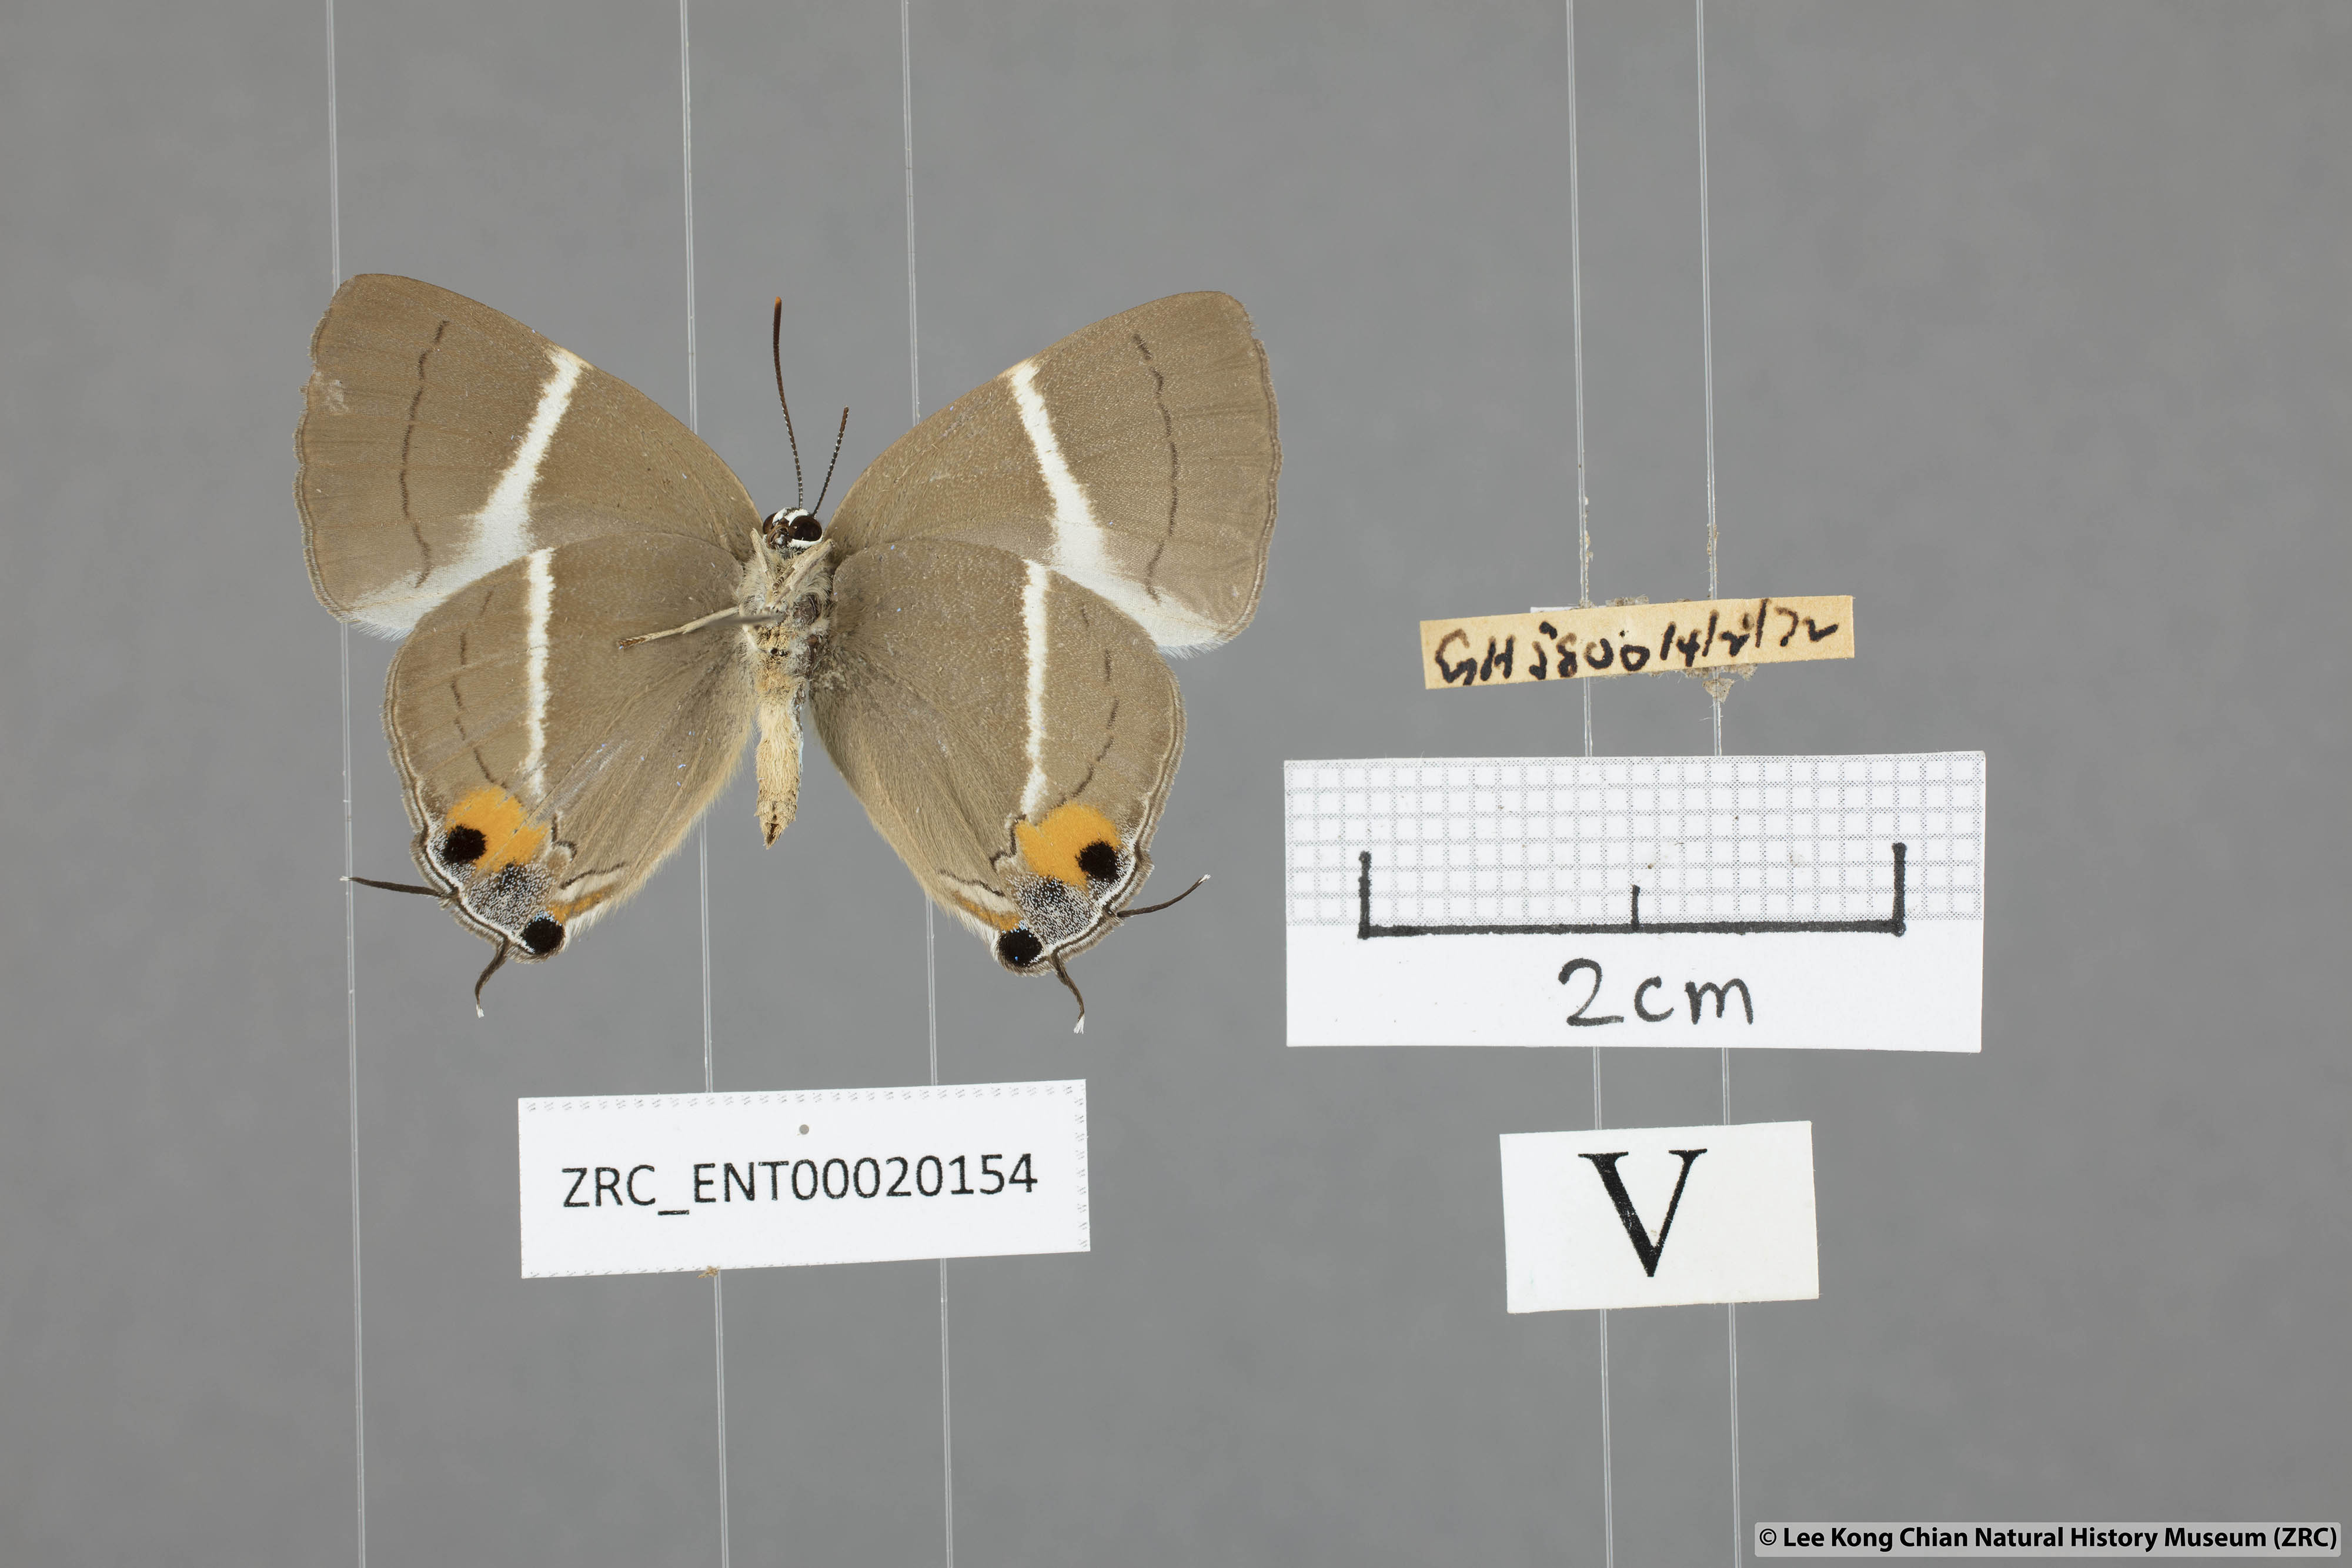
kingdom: Animalia
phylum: Arthropoda
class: Insecta
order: Lepidoptera
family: Lycaenidae
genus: Dacalana
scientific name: Dacalana
